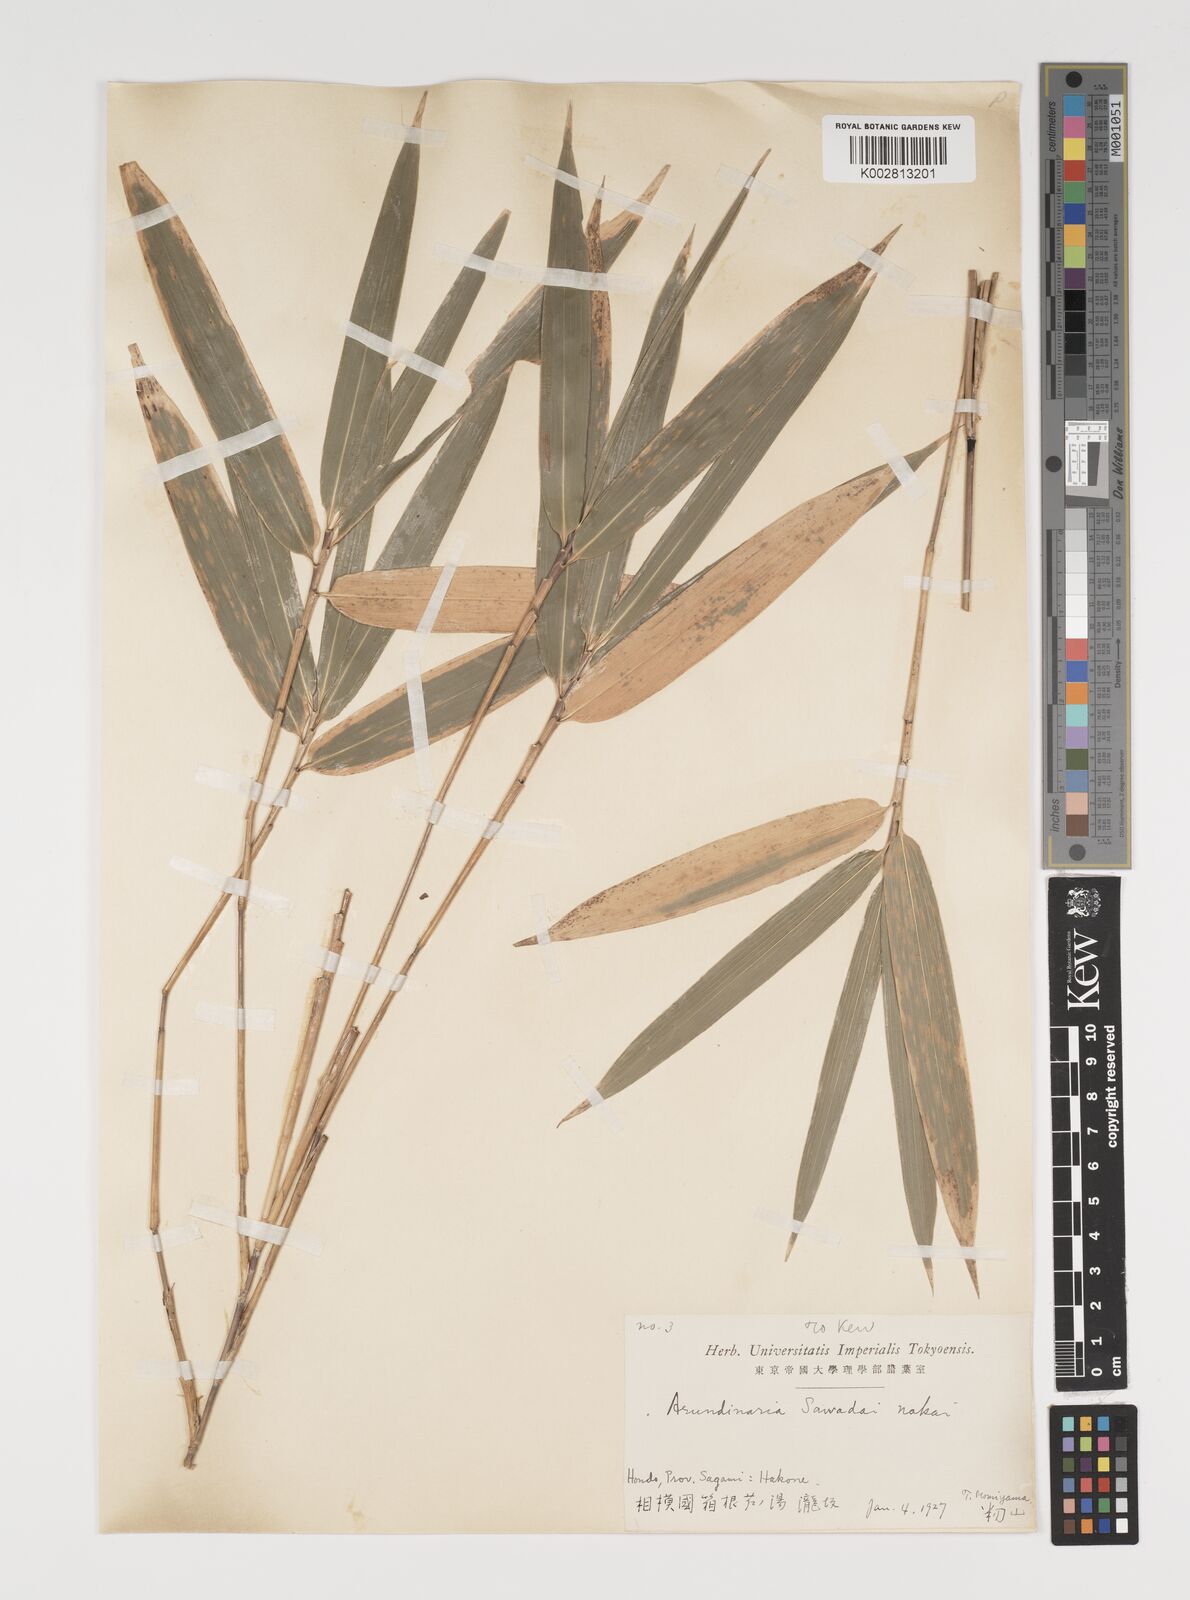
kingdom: Plantae
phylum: Tracheophyta
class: Liliopsida
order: Poales
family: Poaceae
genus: Sasa
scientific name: Sasa
